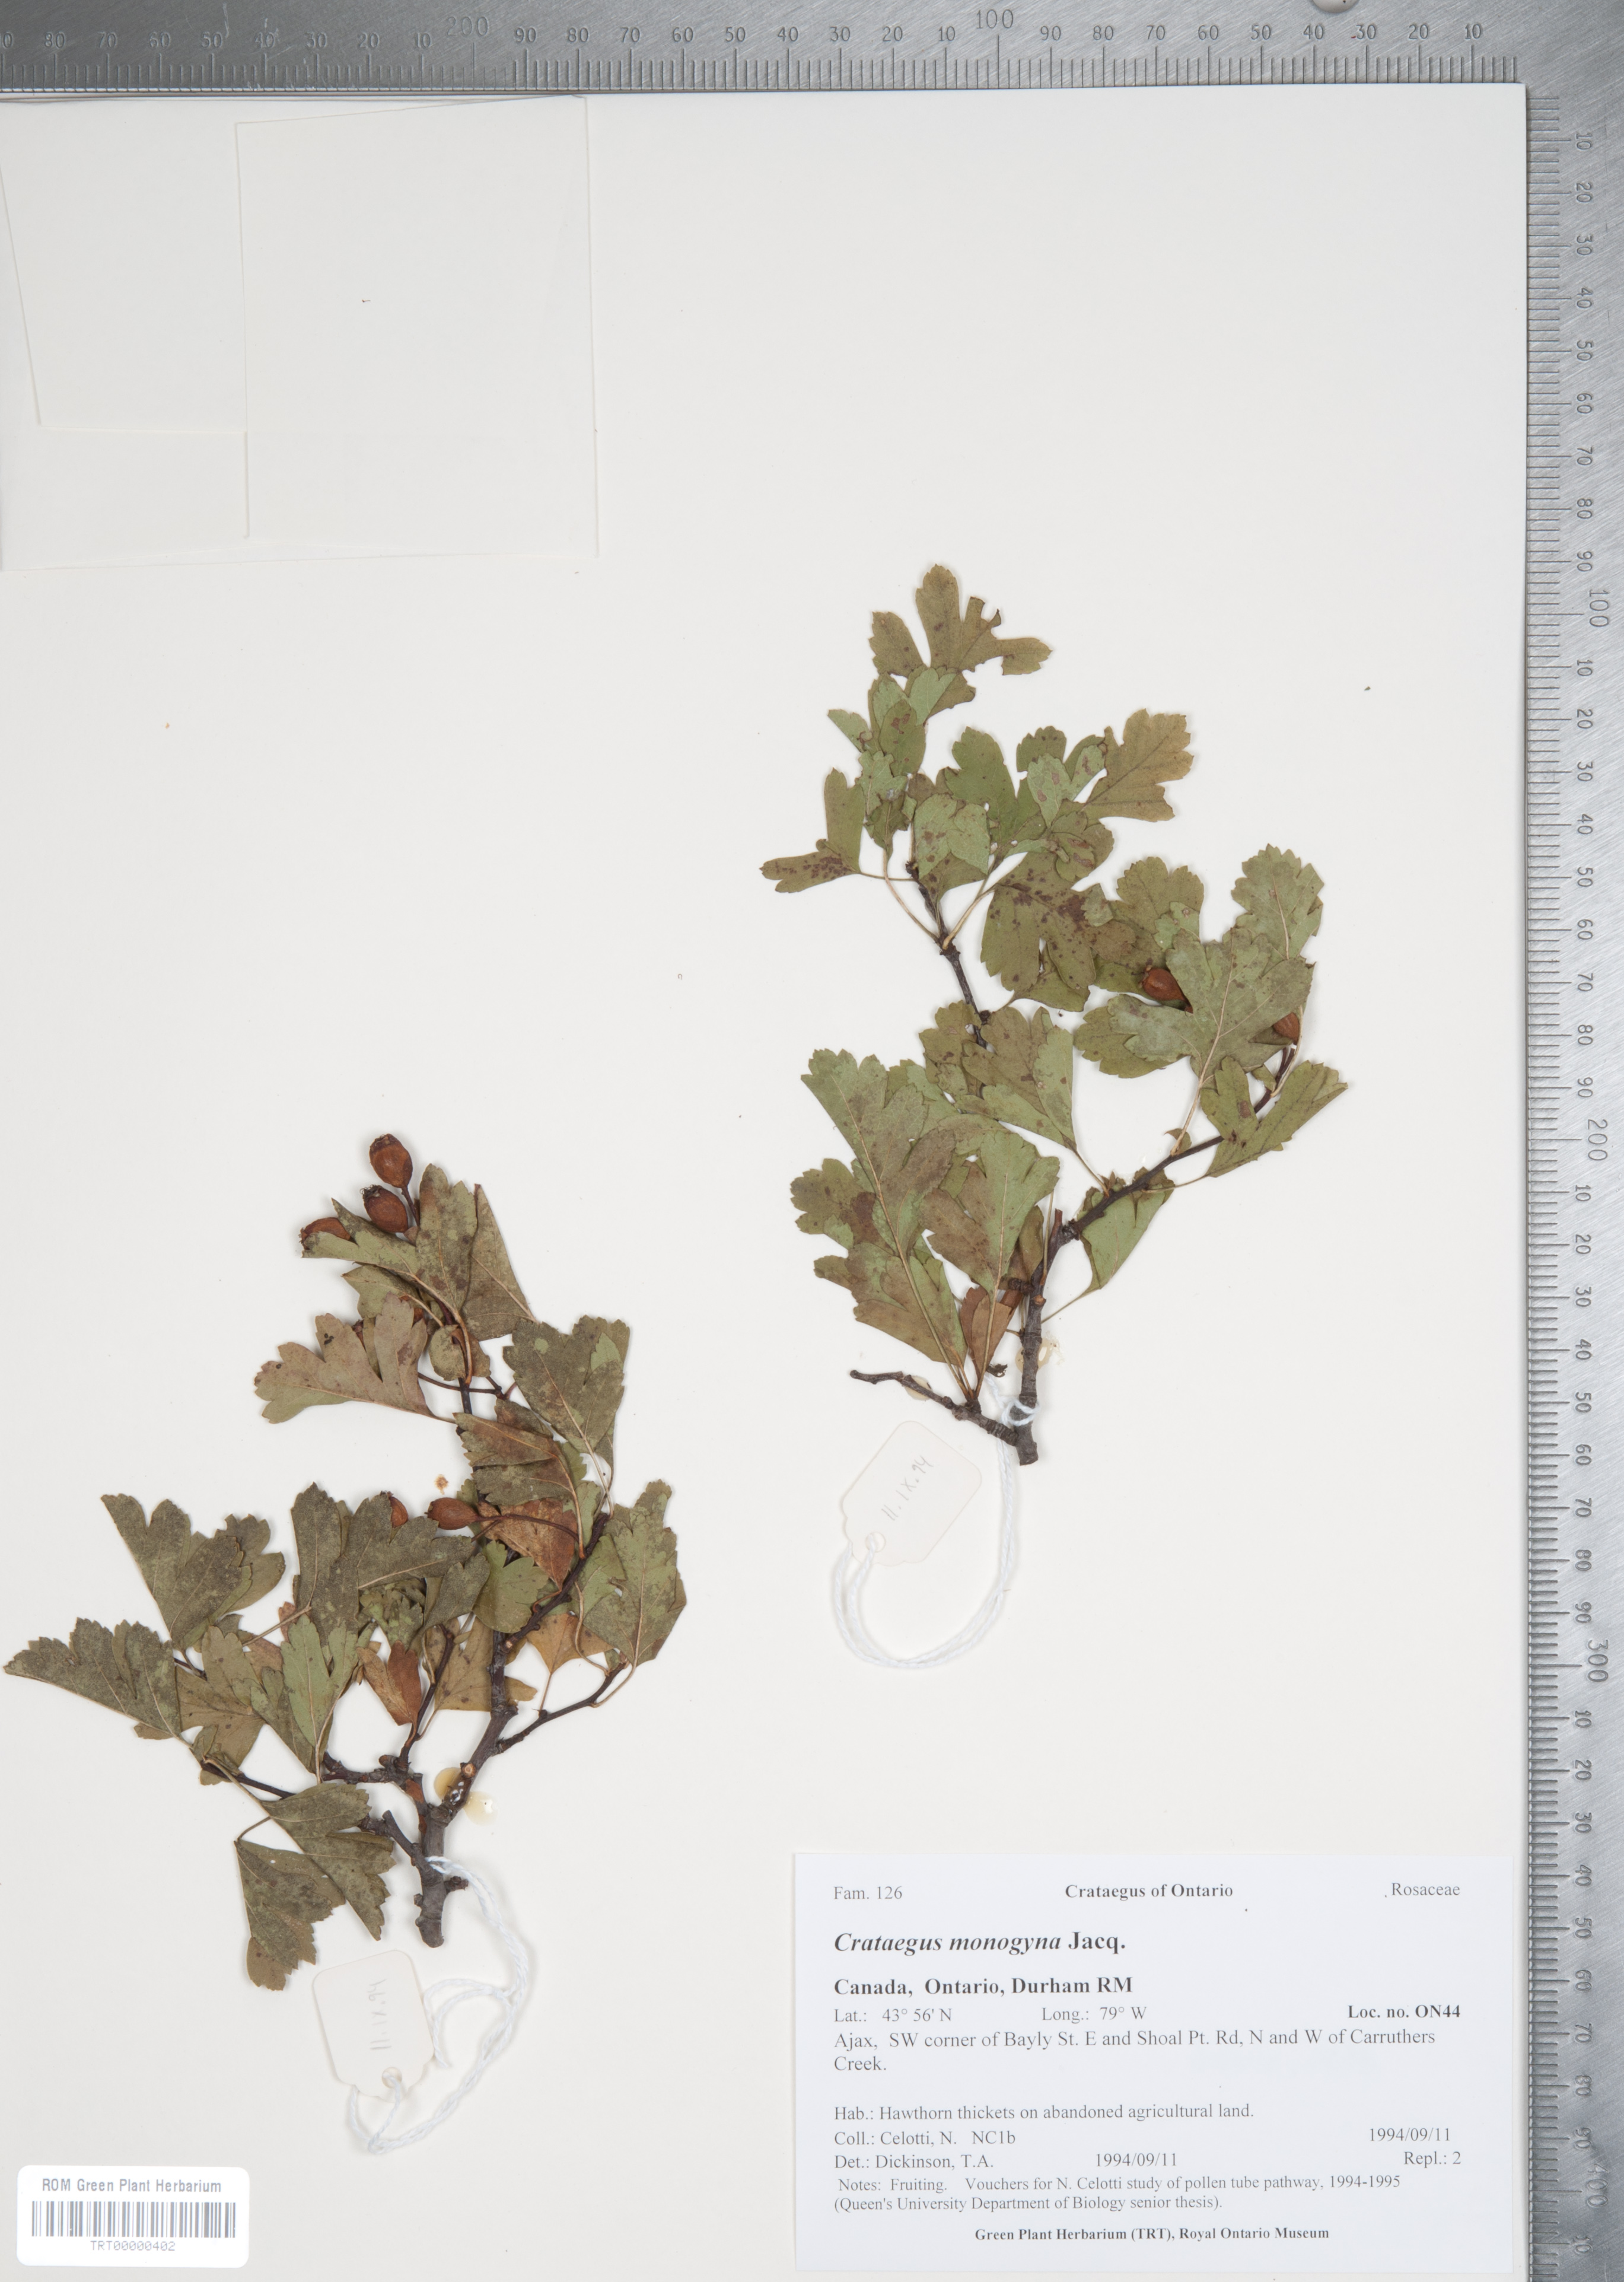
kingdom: Plantae
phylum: Tracheophyta
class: Magnoliopsida
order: Rosales
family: Rosaceae
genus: Crataegus
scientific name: Crataegus monogyna
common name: Hawthorn
